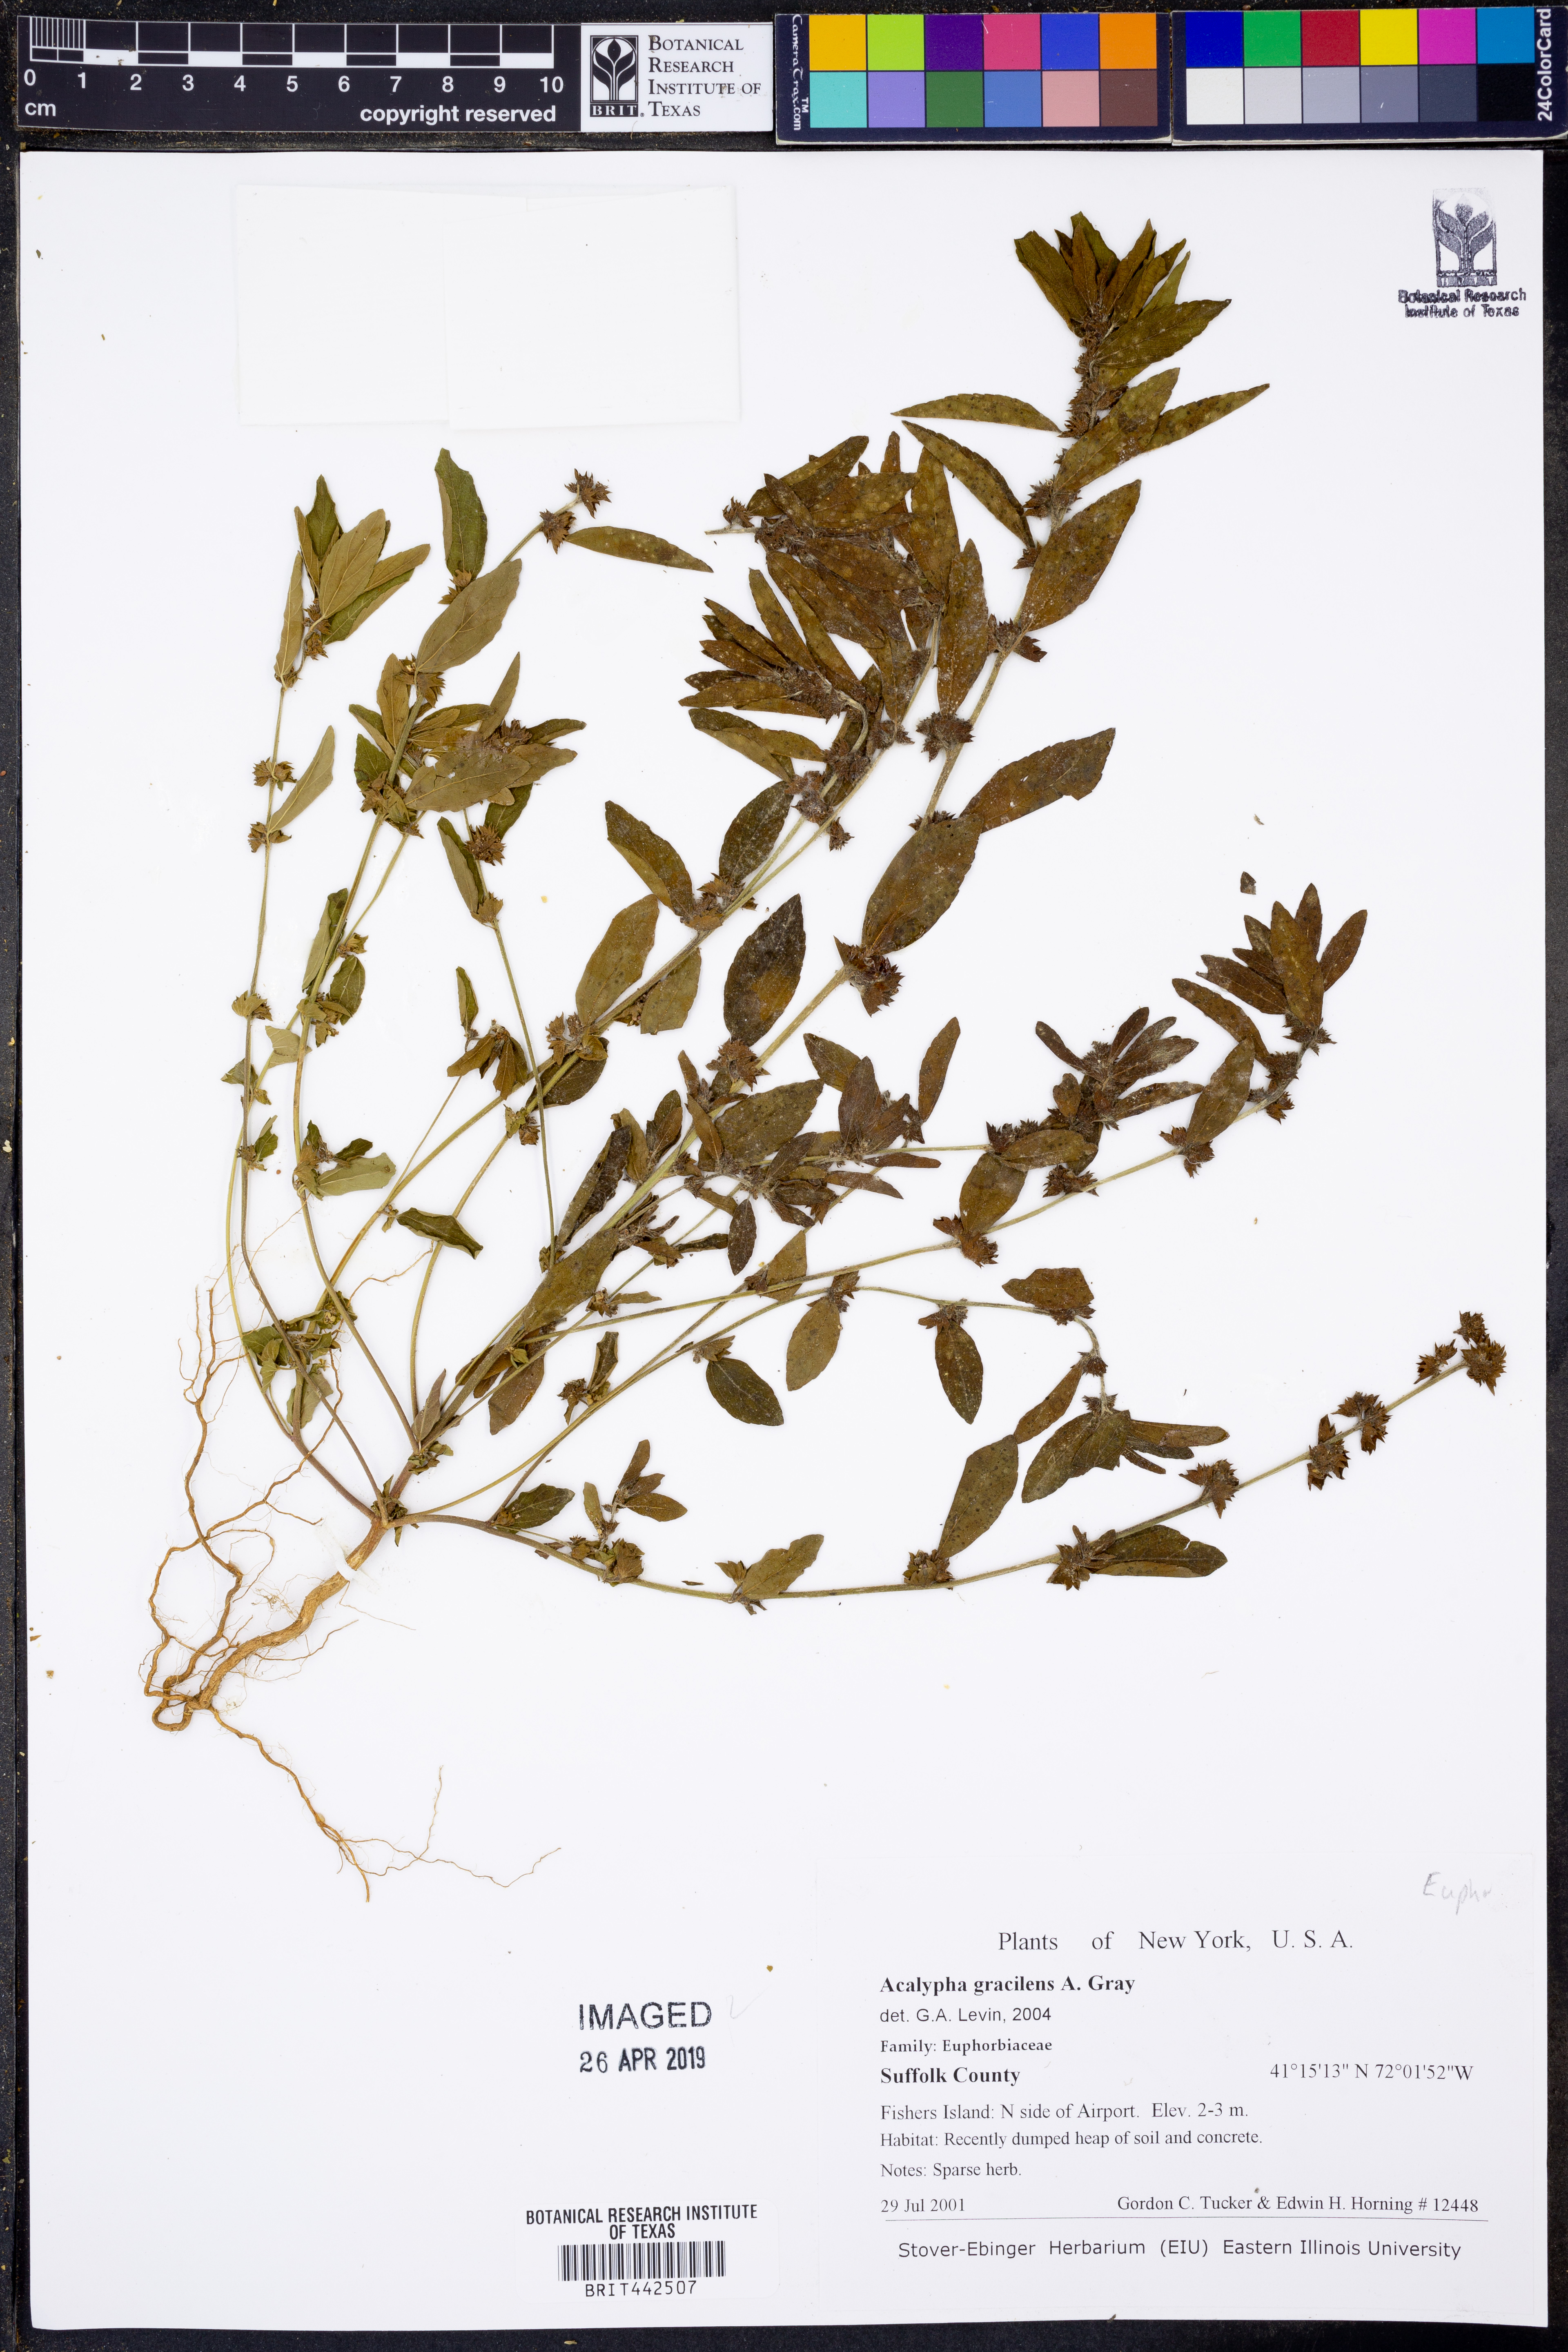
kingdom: Plantae
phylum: Tracheophyta
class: Magnoliopsida
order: Malpighiales
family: Euphorbiaceae
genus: Acalypha
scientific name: Acalypha gracilens
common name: Slender three-seeded mercury
